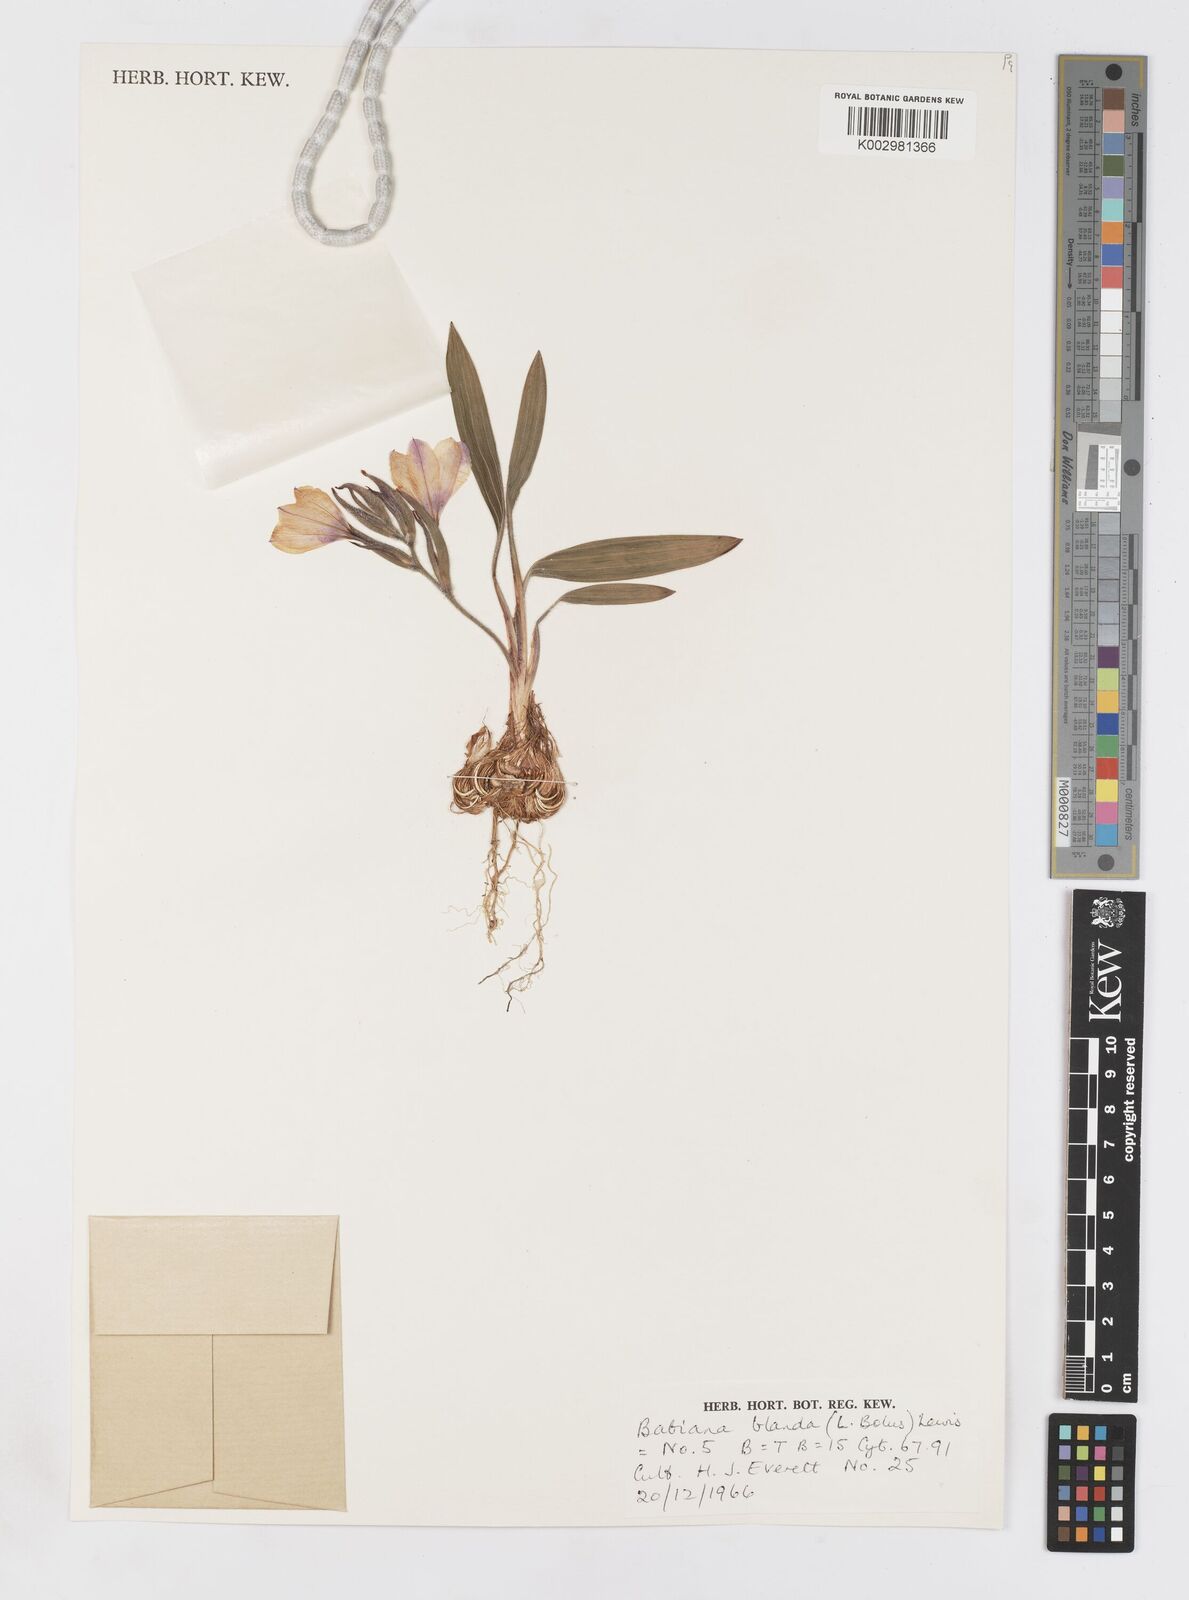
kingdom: Plantae
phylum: Tracheophyta
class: Liliopsida
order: Asparagales
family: Iridaceae
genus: Babiana
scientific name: Babiana blanda
